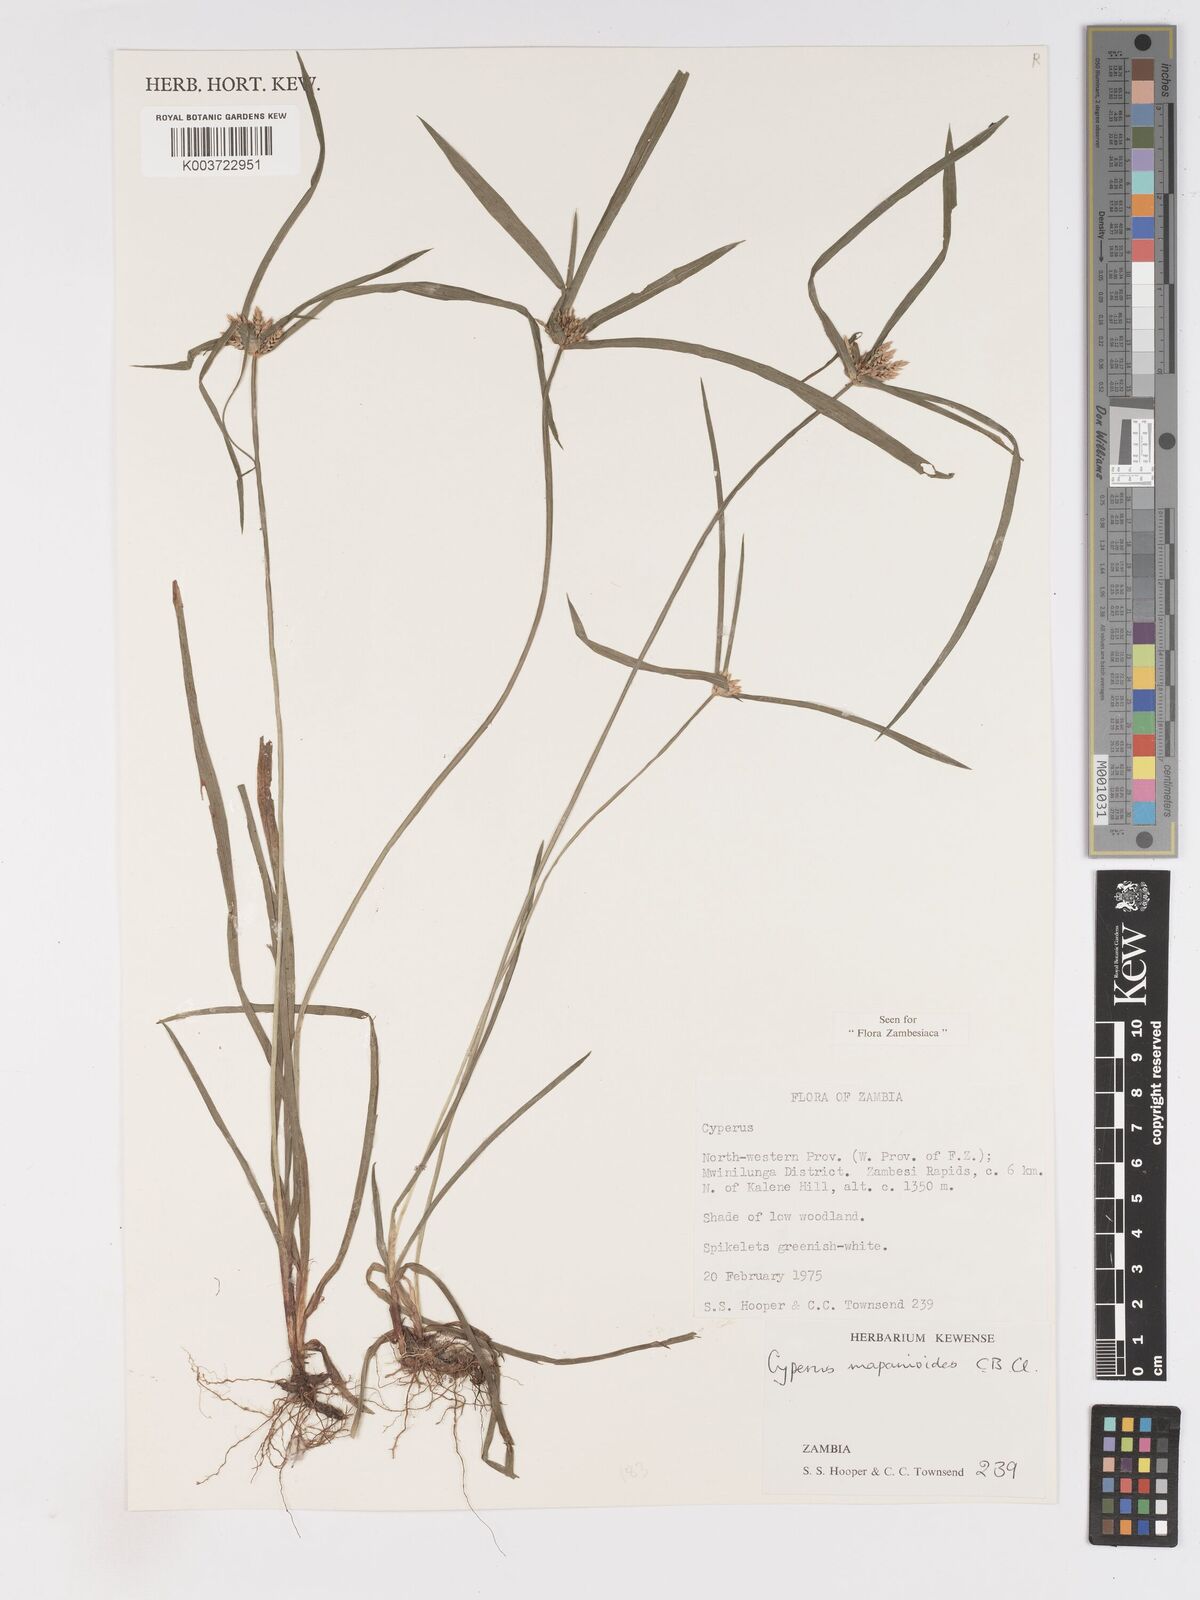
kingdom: Plantae
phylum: Tracheophyta
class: Liliopsida
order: Poales
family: Cyperaceae
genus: Cyperus
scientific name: Cyperus mapanioides
